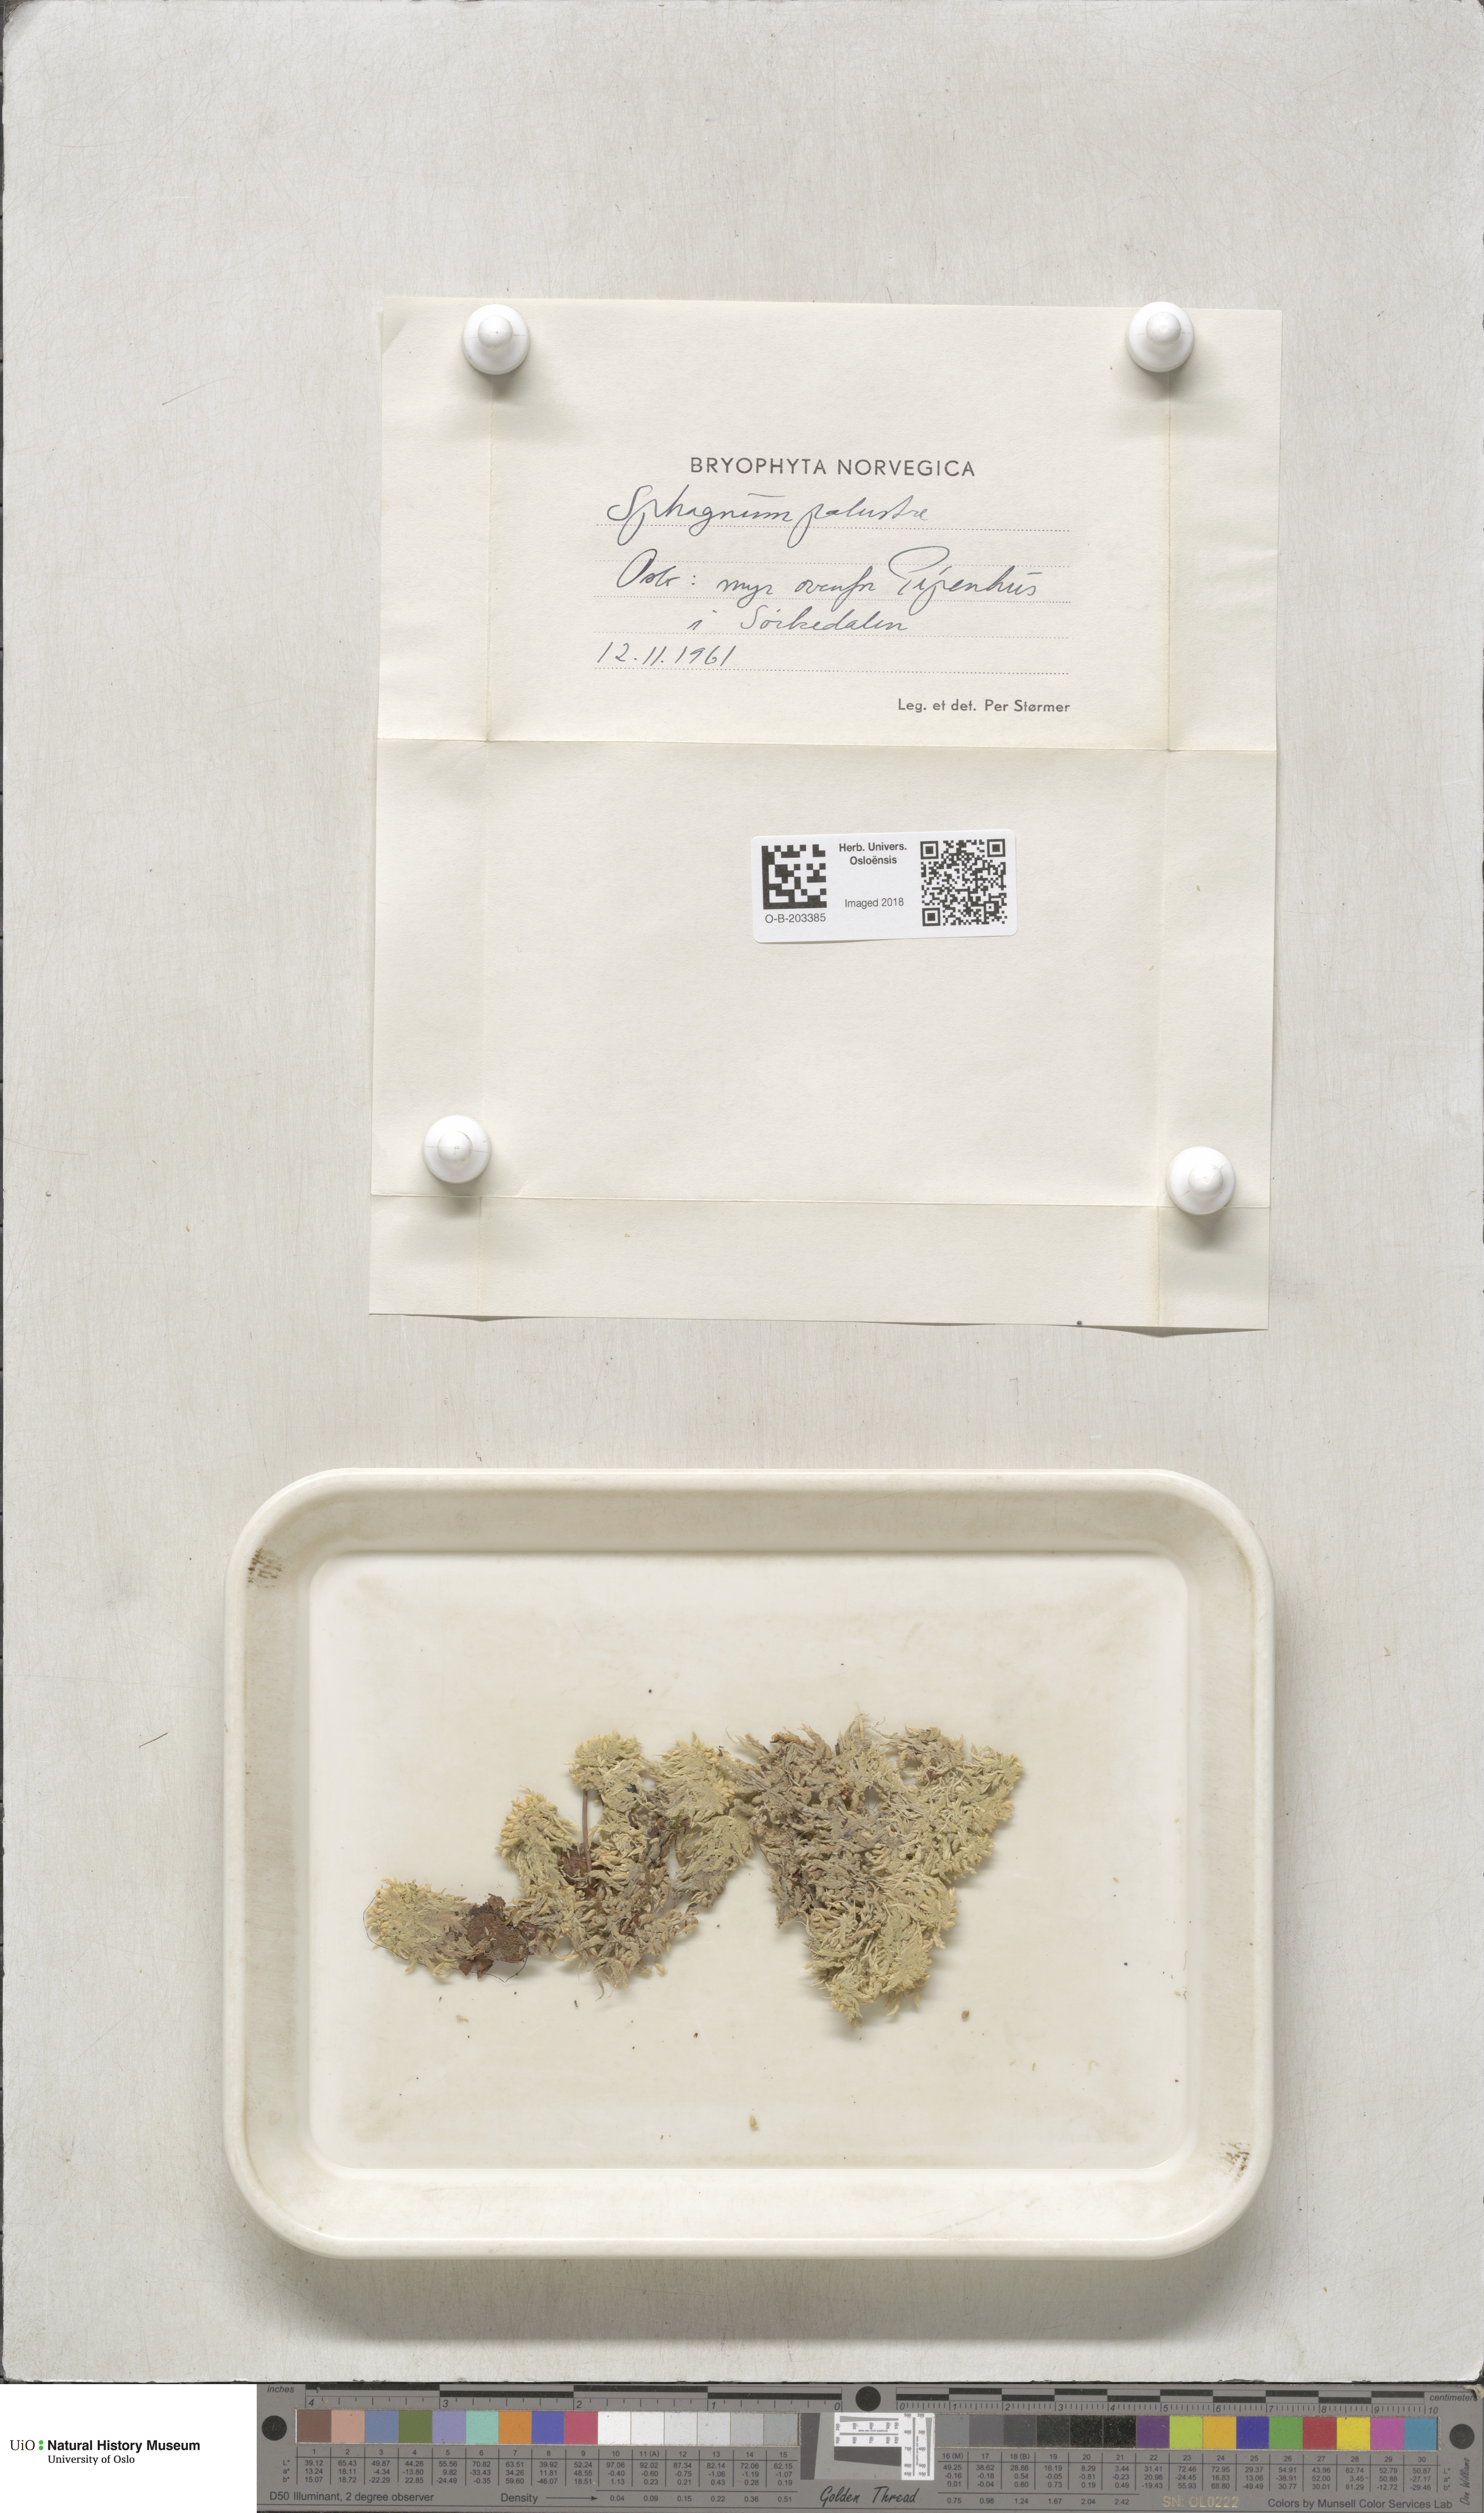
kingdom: Plantae
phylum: Bryophyta
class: Sphagnopsida
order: Sphagnales
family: Sphagnaceae
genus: Sphagnum
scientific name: Sphagnum palustre
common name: Blunt-leaved bog-moss
